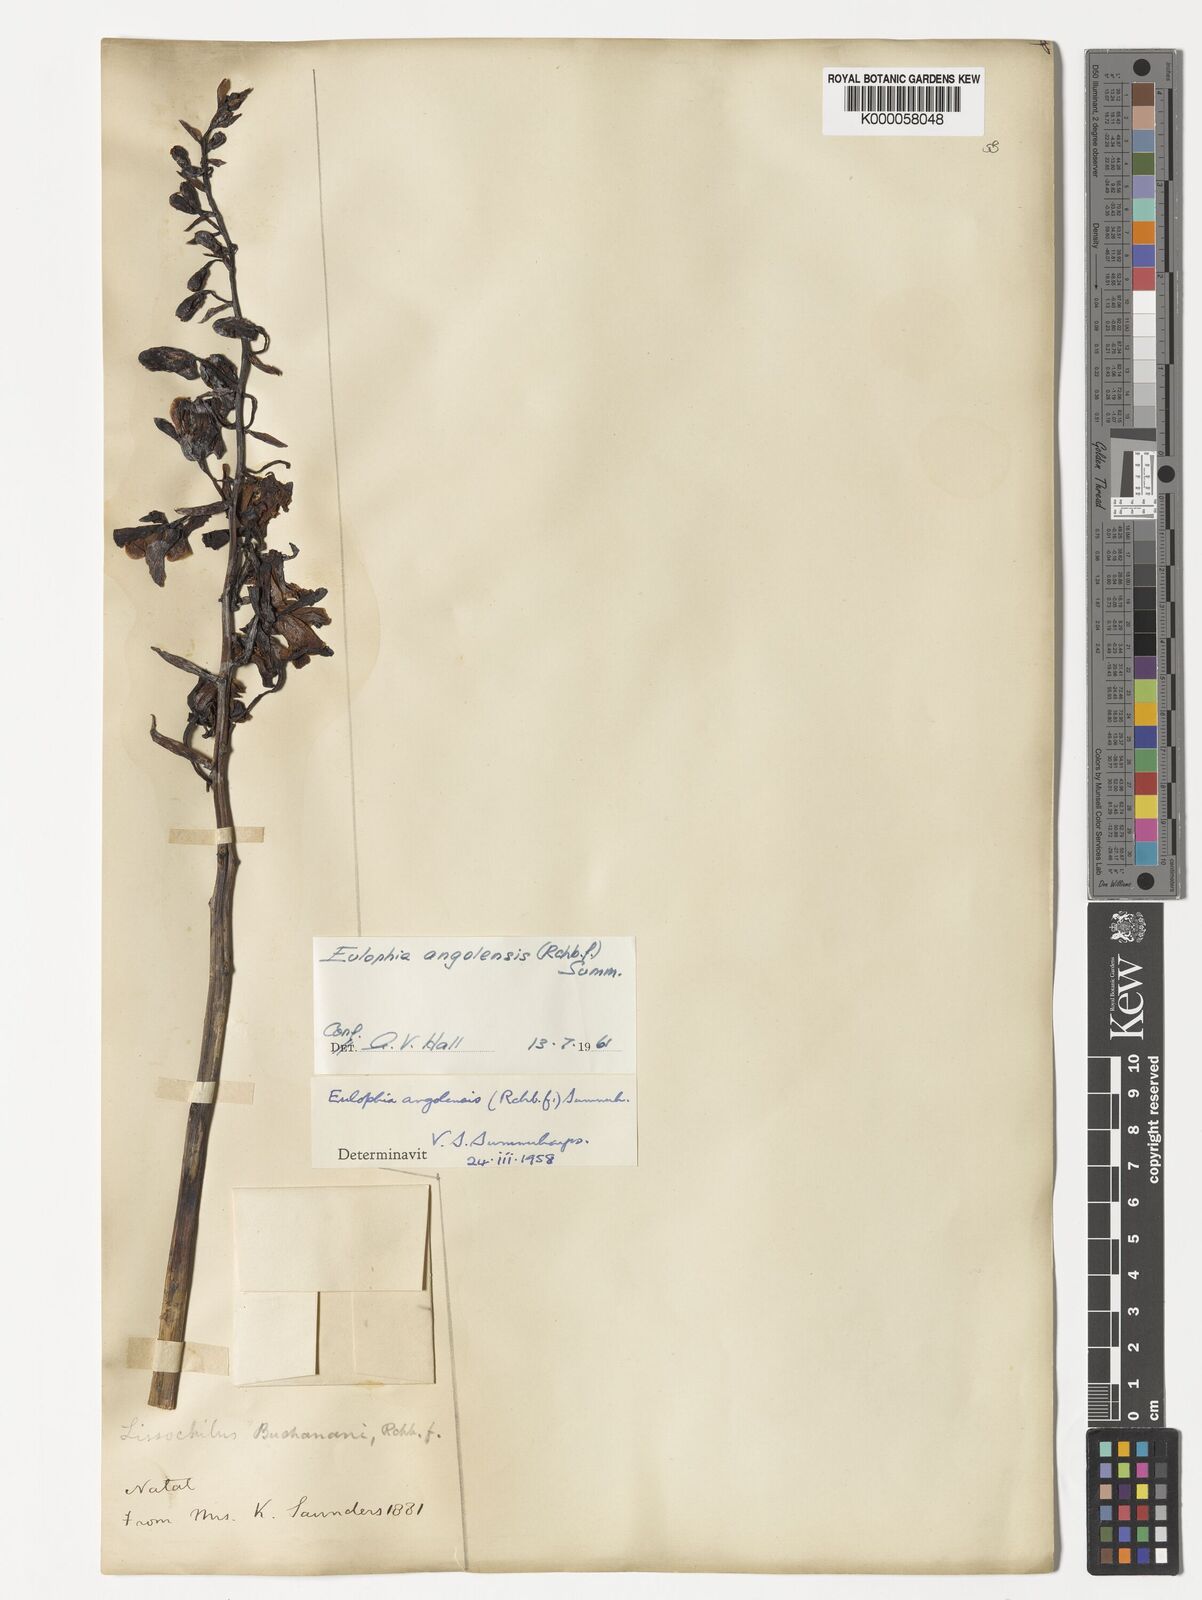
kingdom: Plantae
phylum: Tracheophyta
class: Liliopsida
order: Asparagales
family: Orchidaceae
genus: Eulophia
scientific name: Eulophia angolensis
